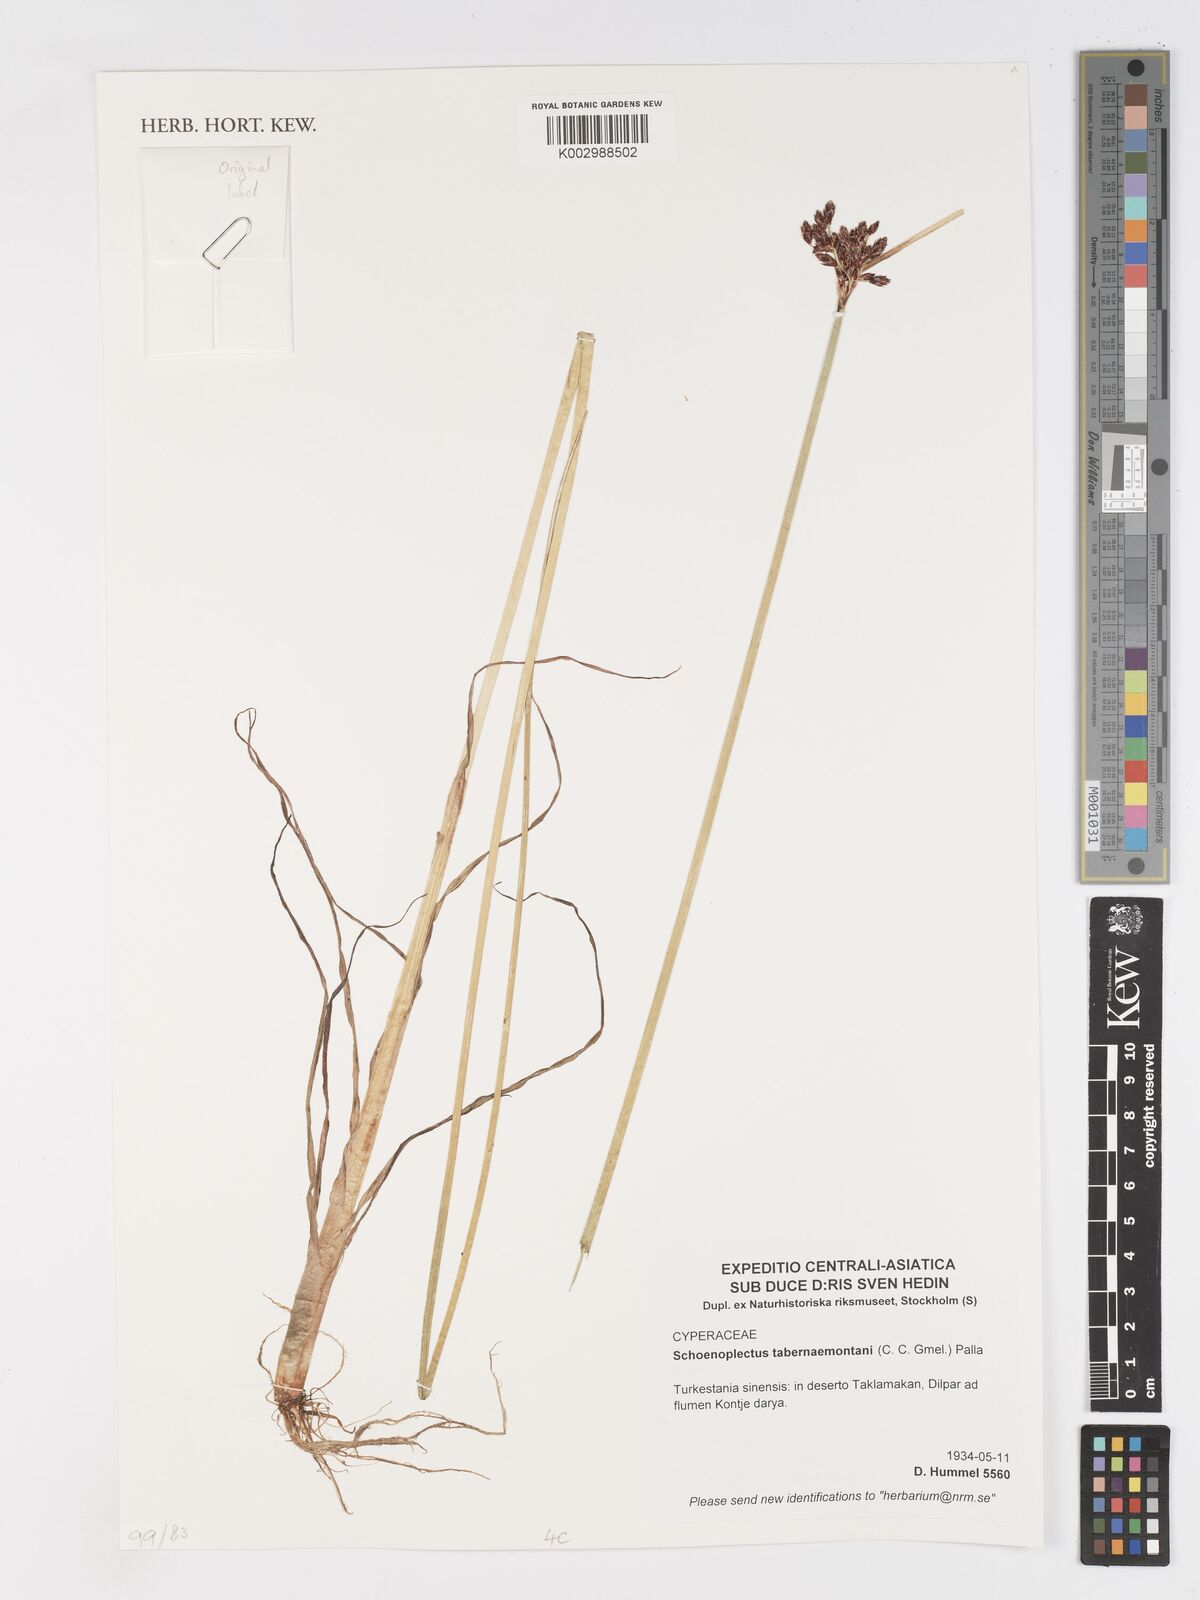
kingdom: Plantae
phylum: Tracheophyta
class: Liliopsida
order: Poales
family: Cyperaceae
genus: Schoenoplectus
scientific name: Schoenoplectus tabernaemontani
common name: Grey club-rush
